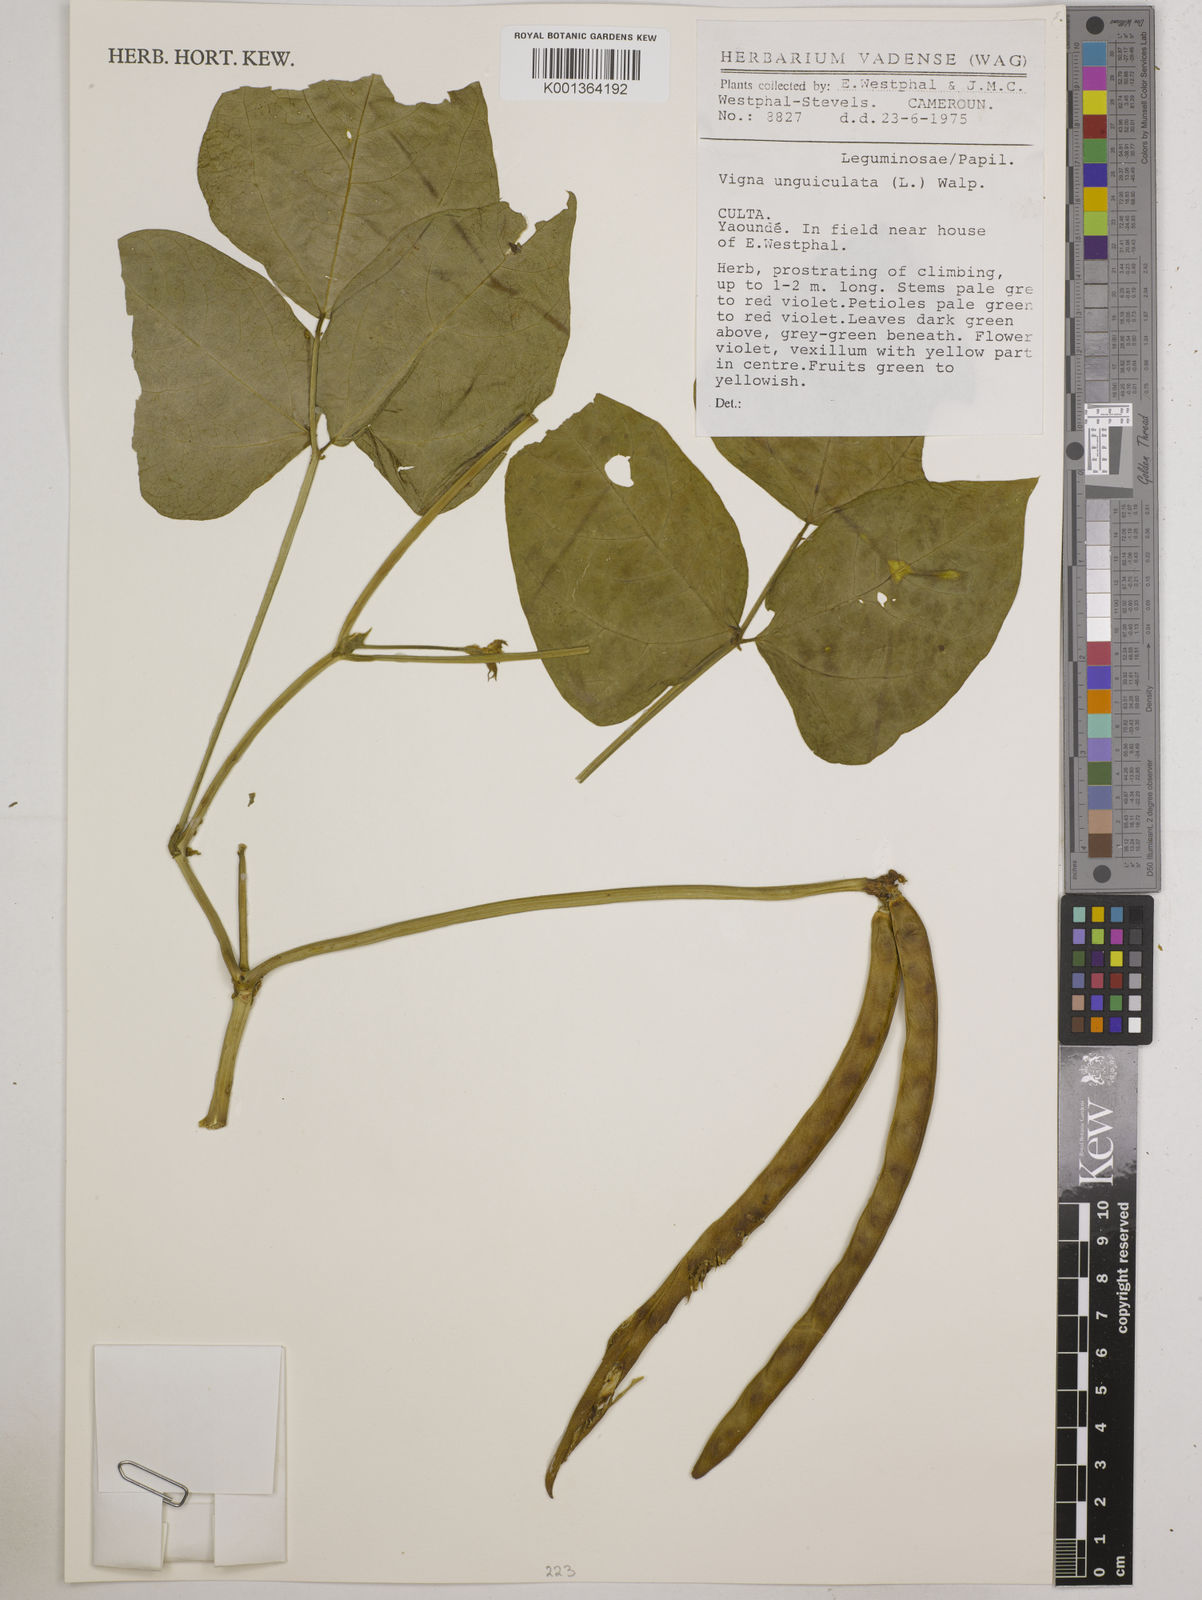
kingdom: Plantae
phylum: Tracheophyta
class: Magnoliopsida
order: Fabales
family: Fabaceae
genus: Vigna
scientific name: Vigna unguiculata
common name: Cowpea
